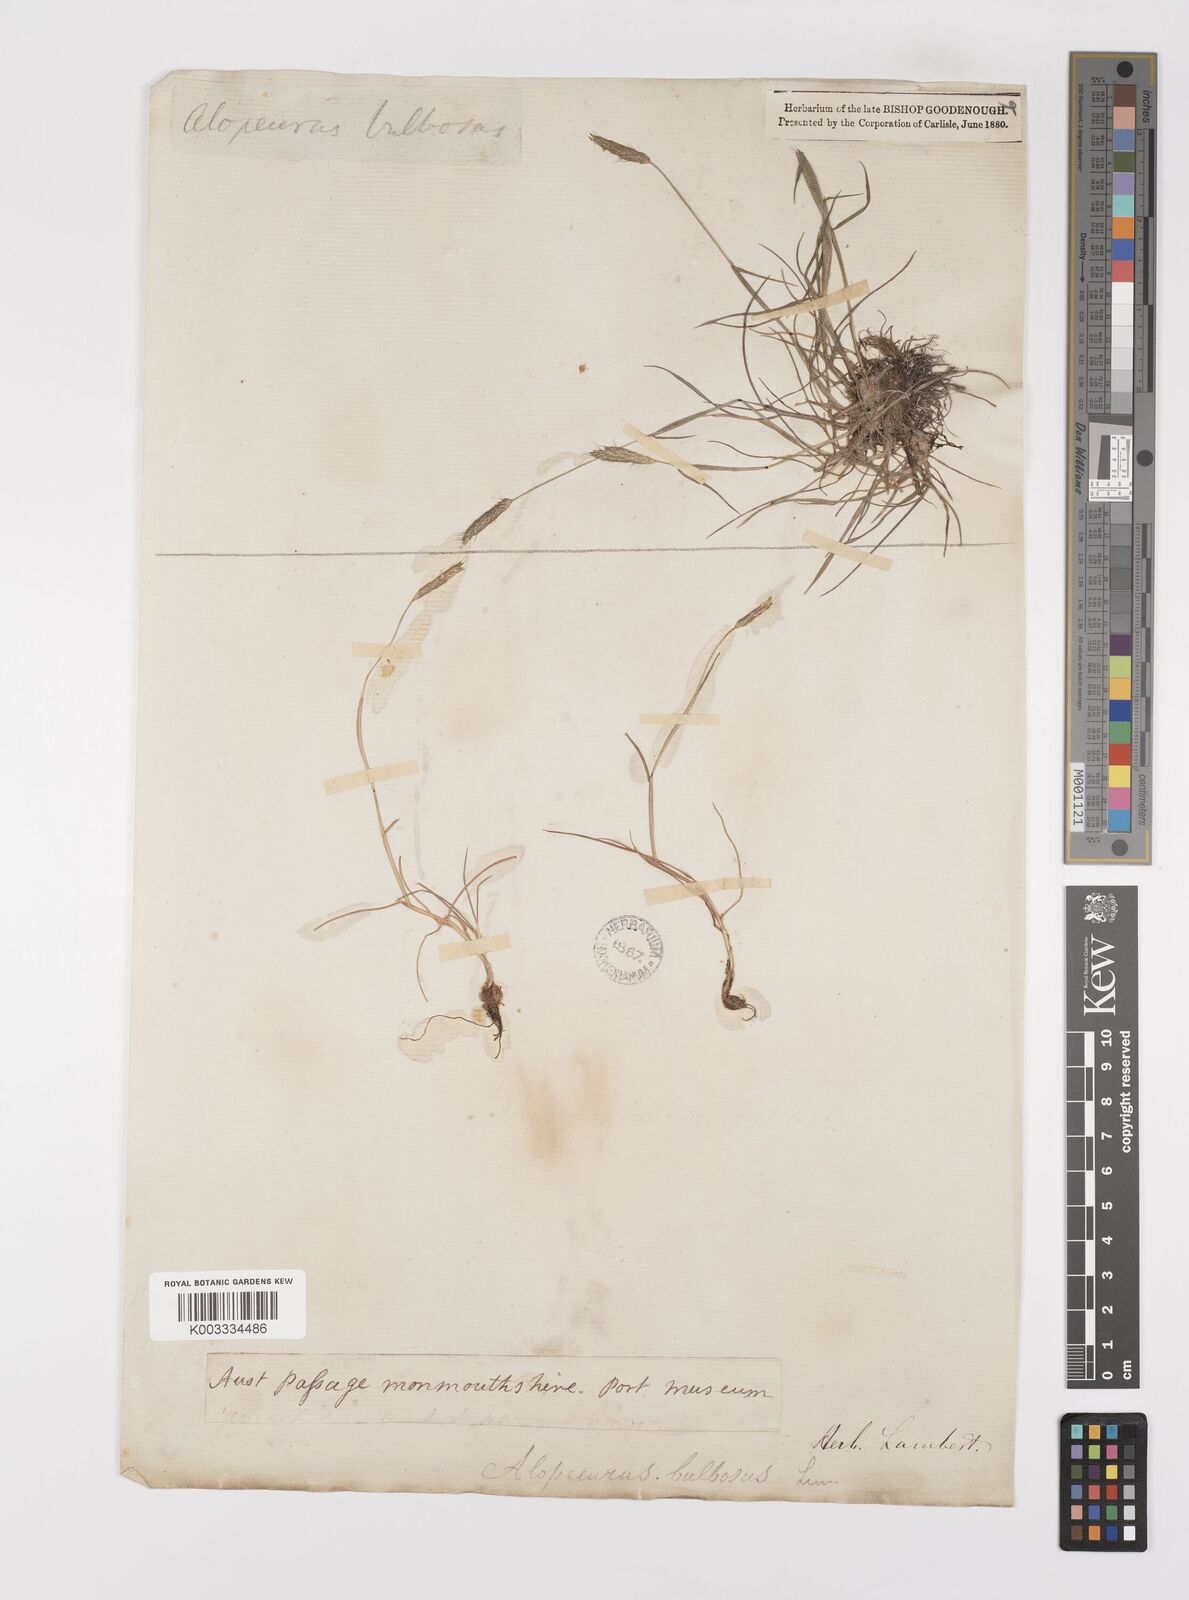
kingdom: Plantae
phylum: Tracheophyta
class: Liliopsida
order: Poales
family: Poaceae
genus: Alopecurus
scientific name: Alopecurus bulbosus
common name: Bulbous foxtail
